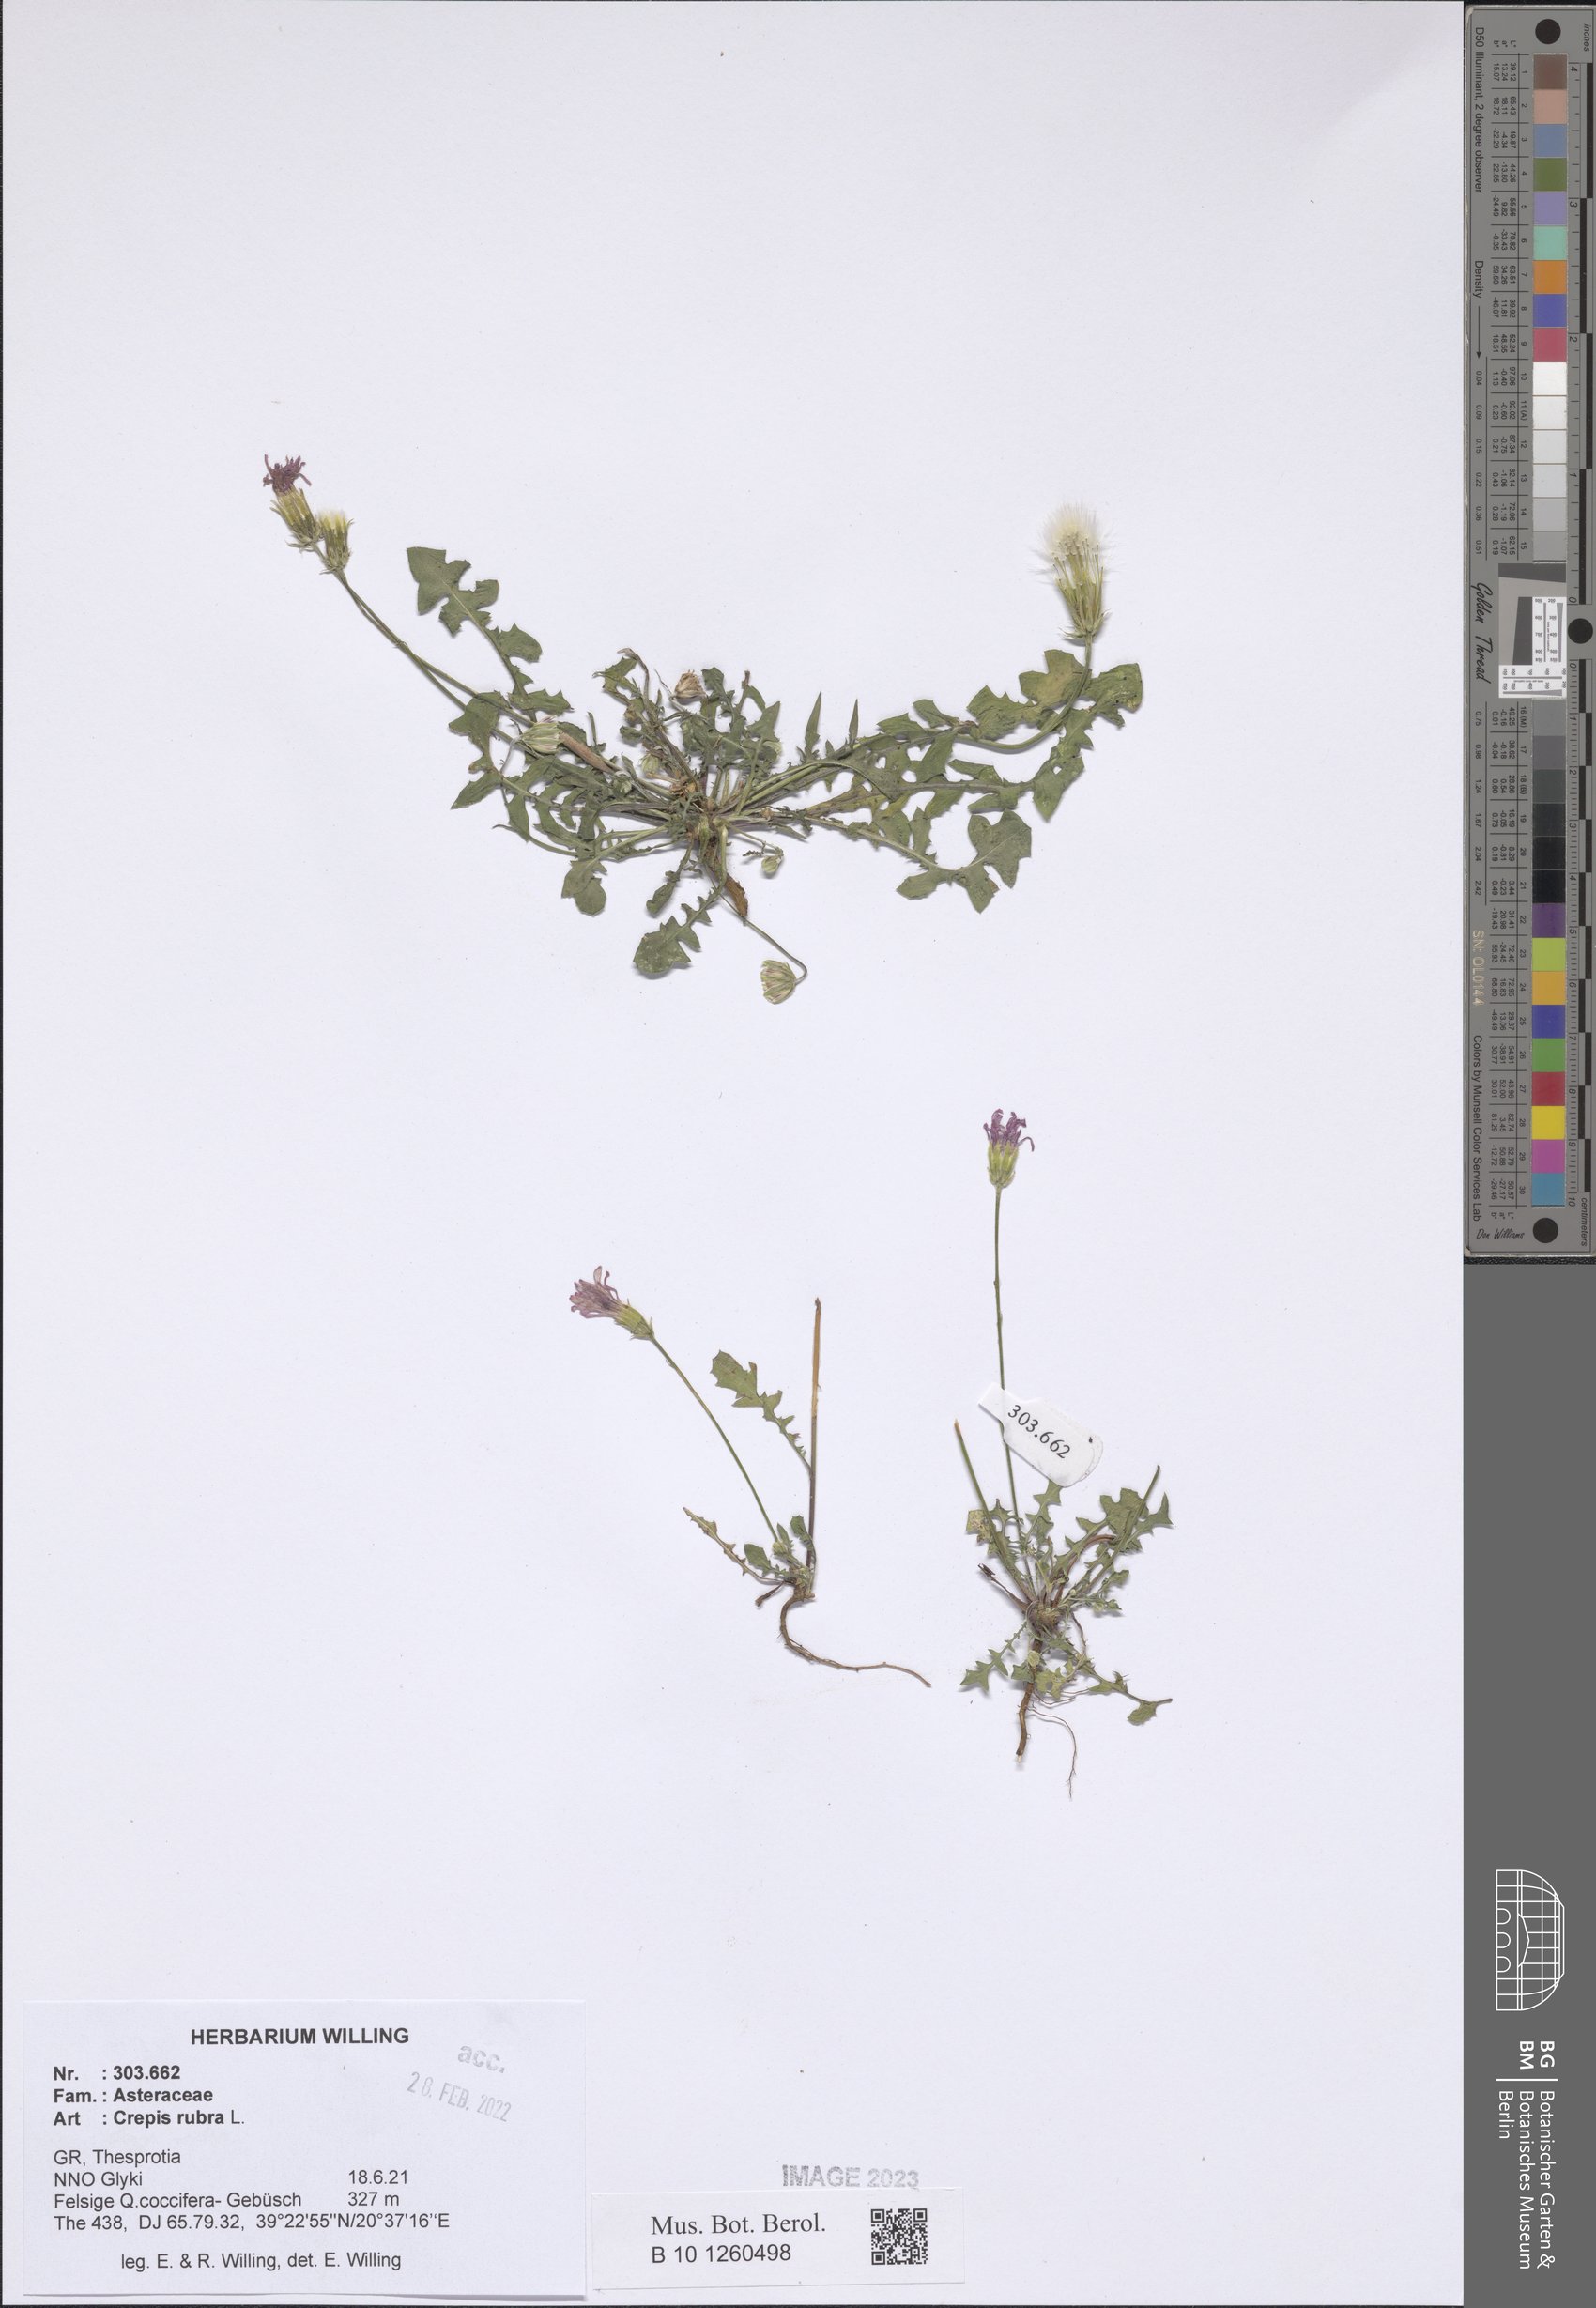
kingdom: Plantae
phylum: Tracheophyta
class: Magnoliopsida
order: Asterales
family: Asteraceae
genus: Crepis
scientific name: Crepis rubra
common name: Pink hawk's-beard
